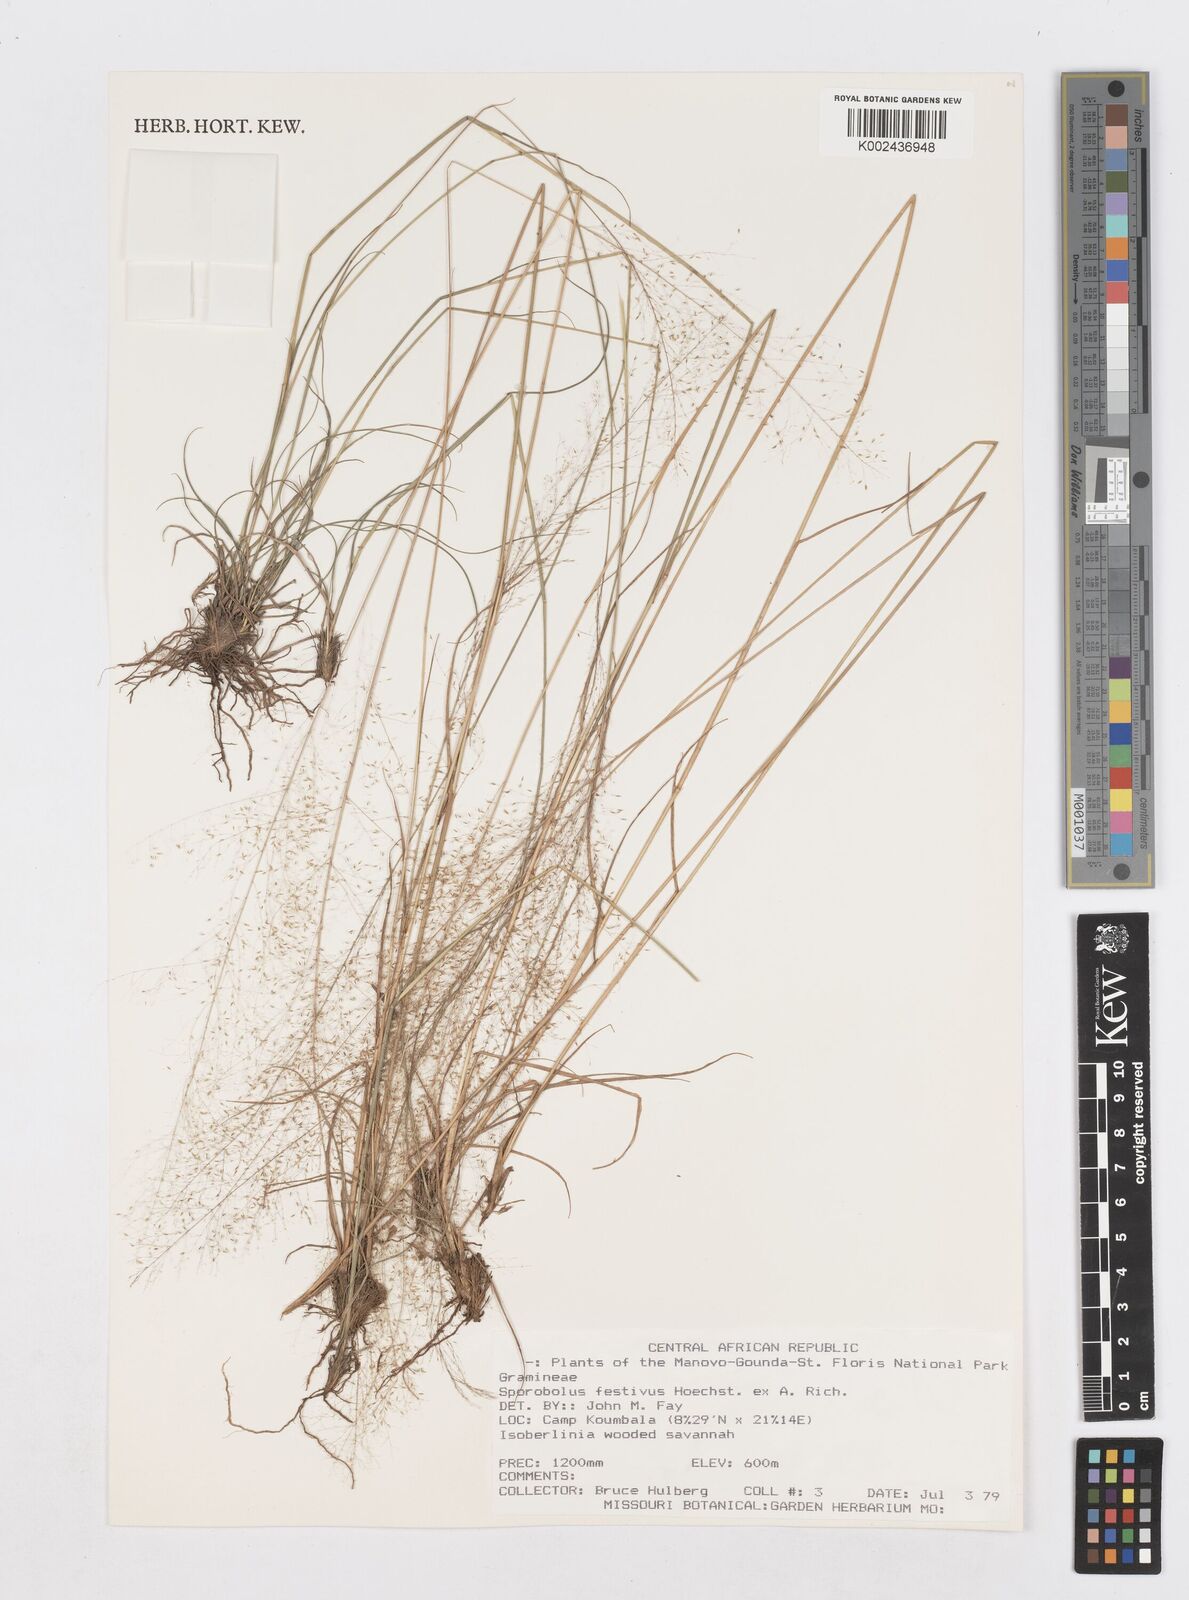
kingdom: Plantae
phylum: Tracheophyta
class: Liliopsida
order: Poales
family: Poaceae
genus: Sporobolus
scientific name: Sporobolus festivus
